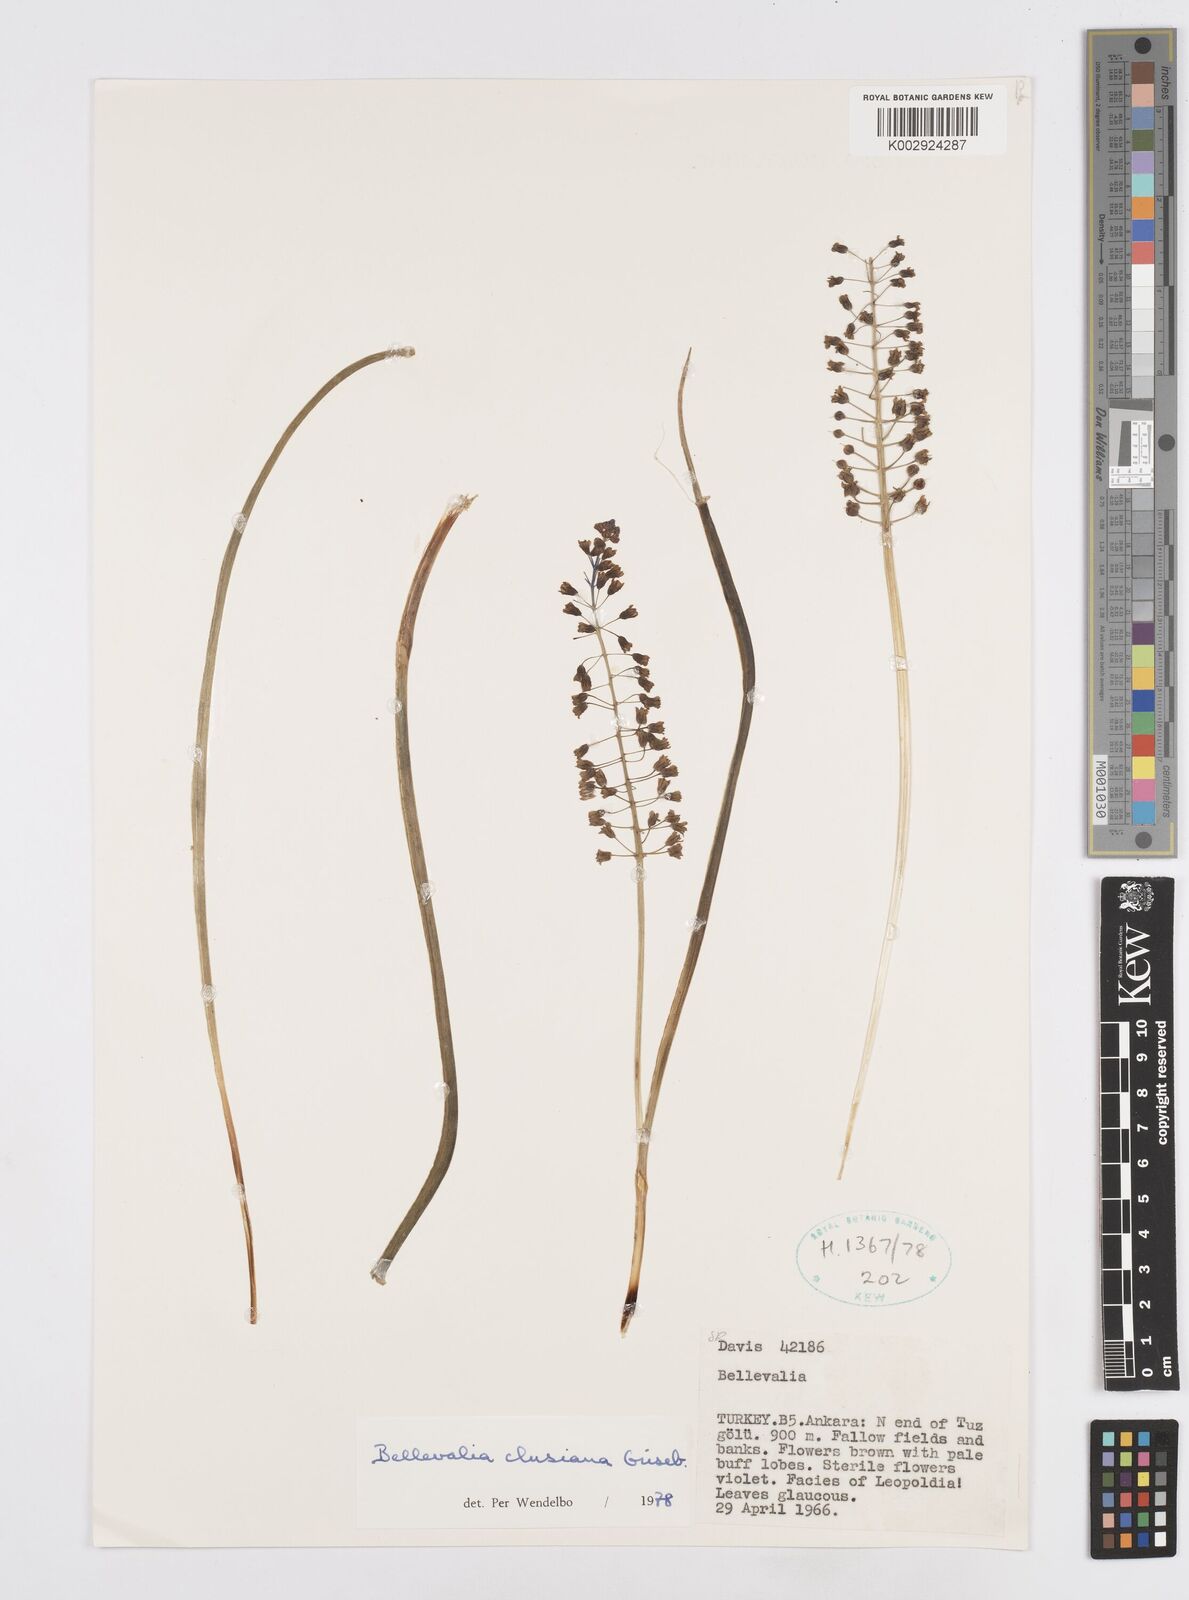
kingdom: Plantae
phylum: Tracheophyta
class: Liliopsida
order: Asparagales
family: Asparagaceae
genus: Bellevalia
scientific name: Bellevalia clusiana
